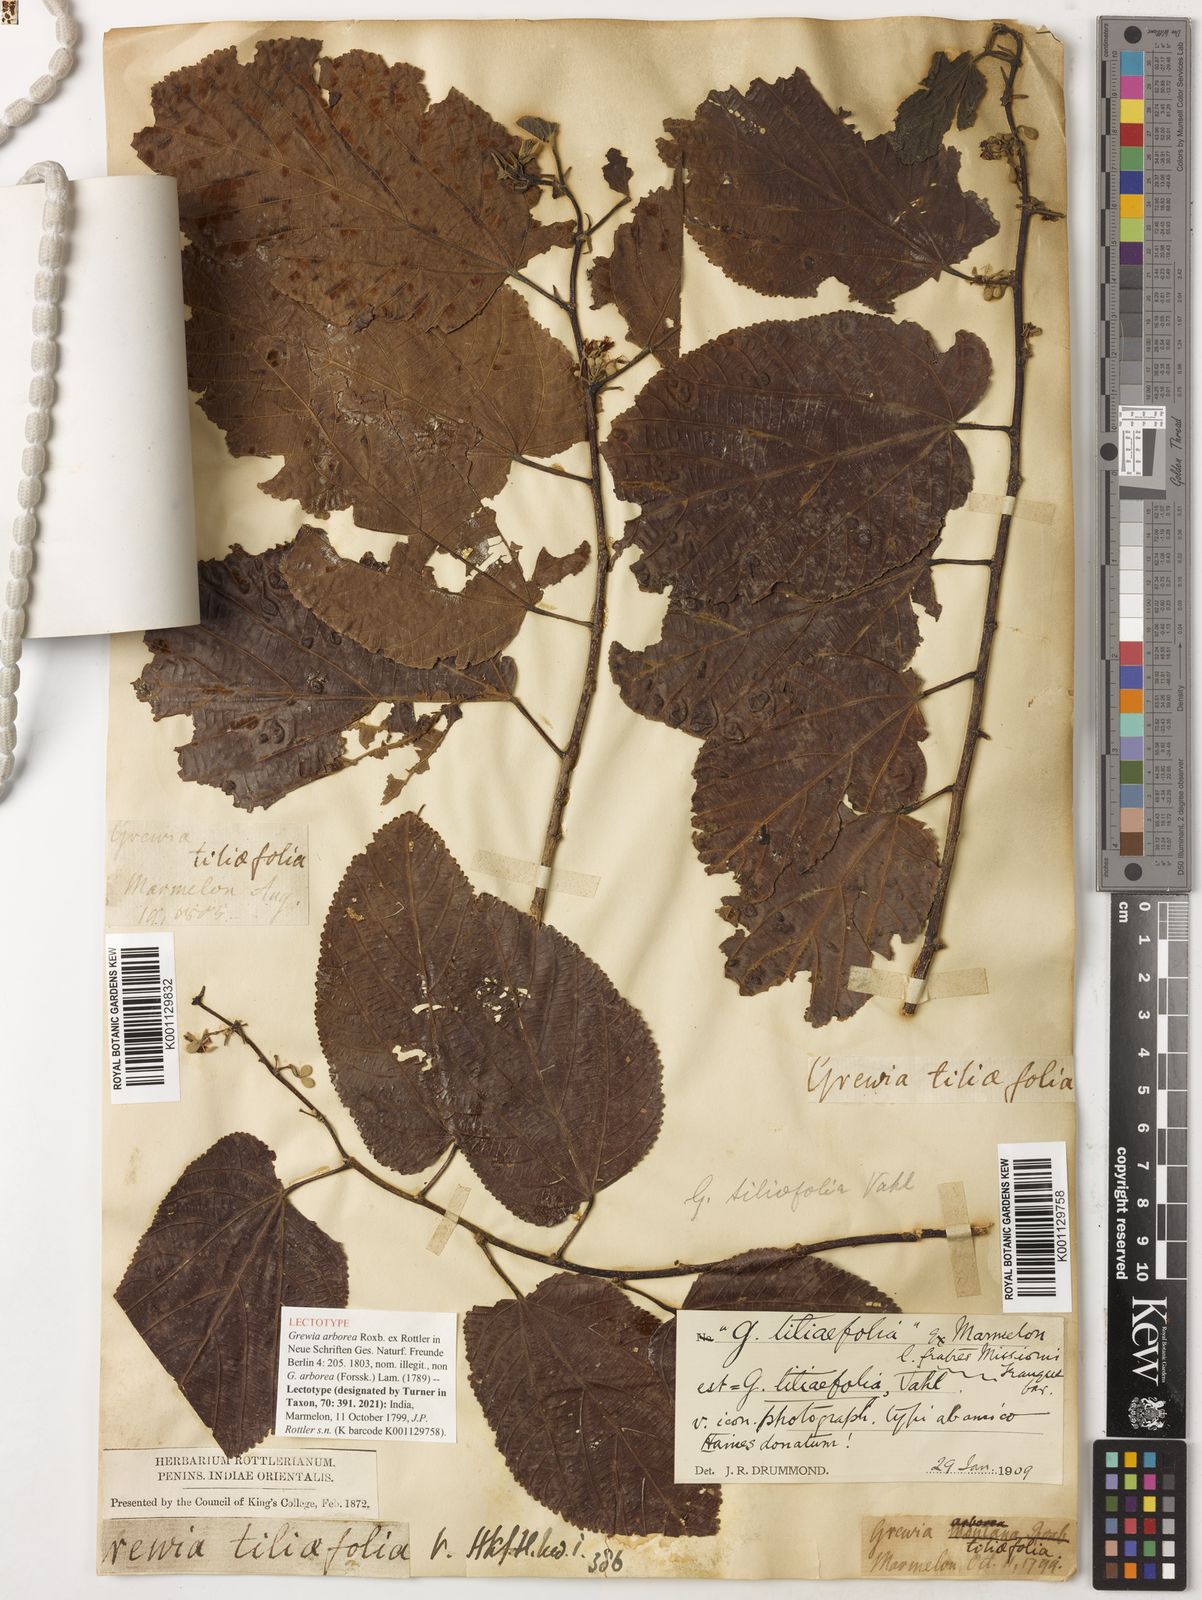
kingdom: Plantae
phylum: Tracheophyta
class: Magnoliopsida
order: Malvales
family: Malvaceae
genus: Grewia
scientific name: Grewia tiliifolia
